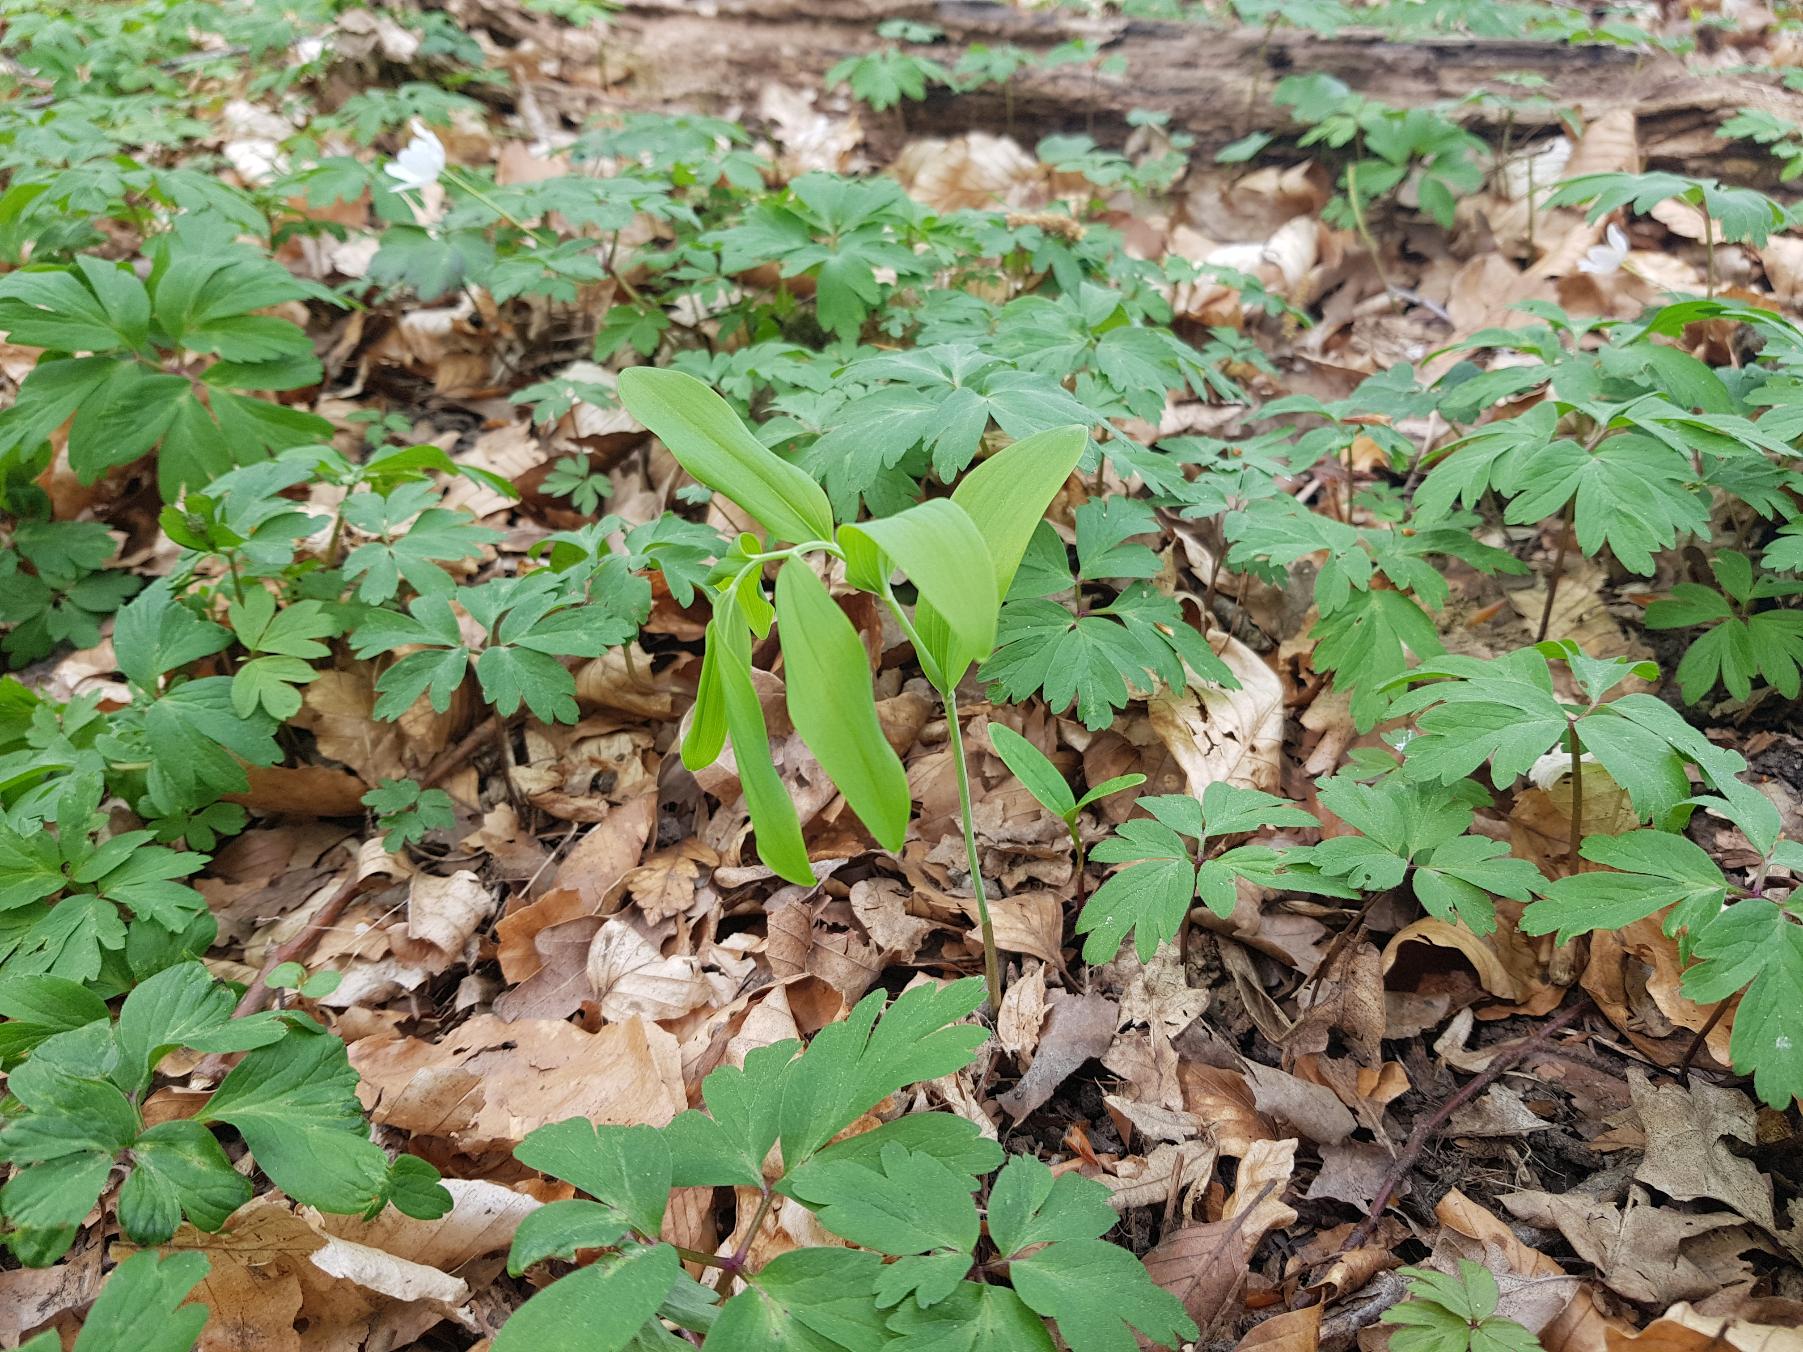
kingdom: Plantae
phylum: Tracheophyta
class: Liliopsida
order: Asparagales
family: Asparagaceae
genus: Polygonatum
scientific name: Polygonatum multiflorum
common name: Stor konval
